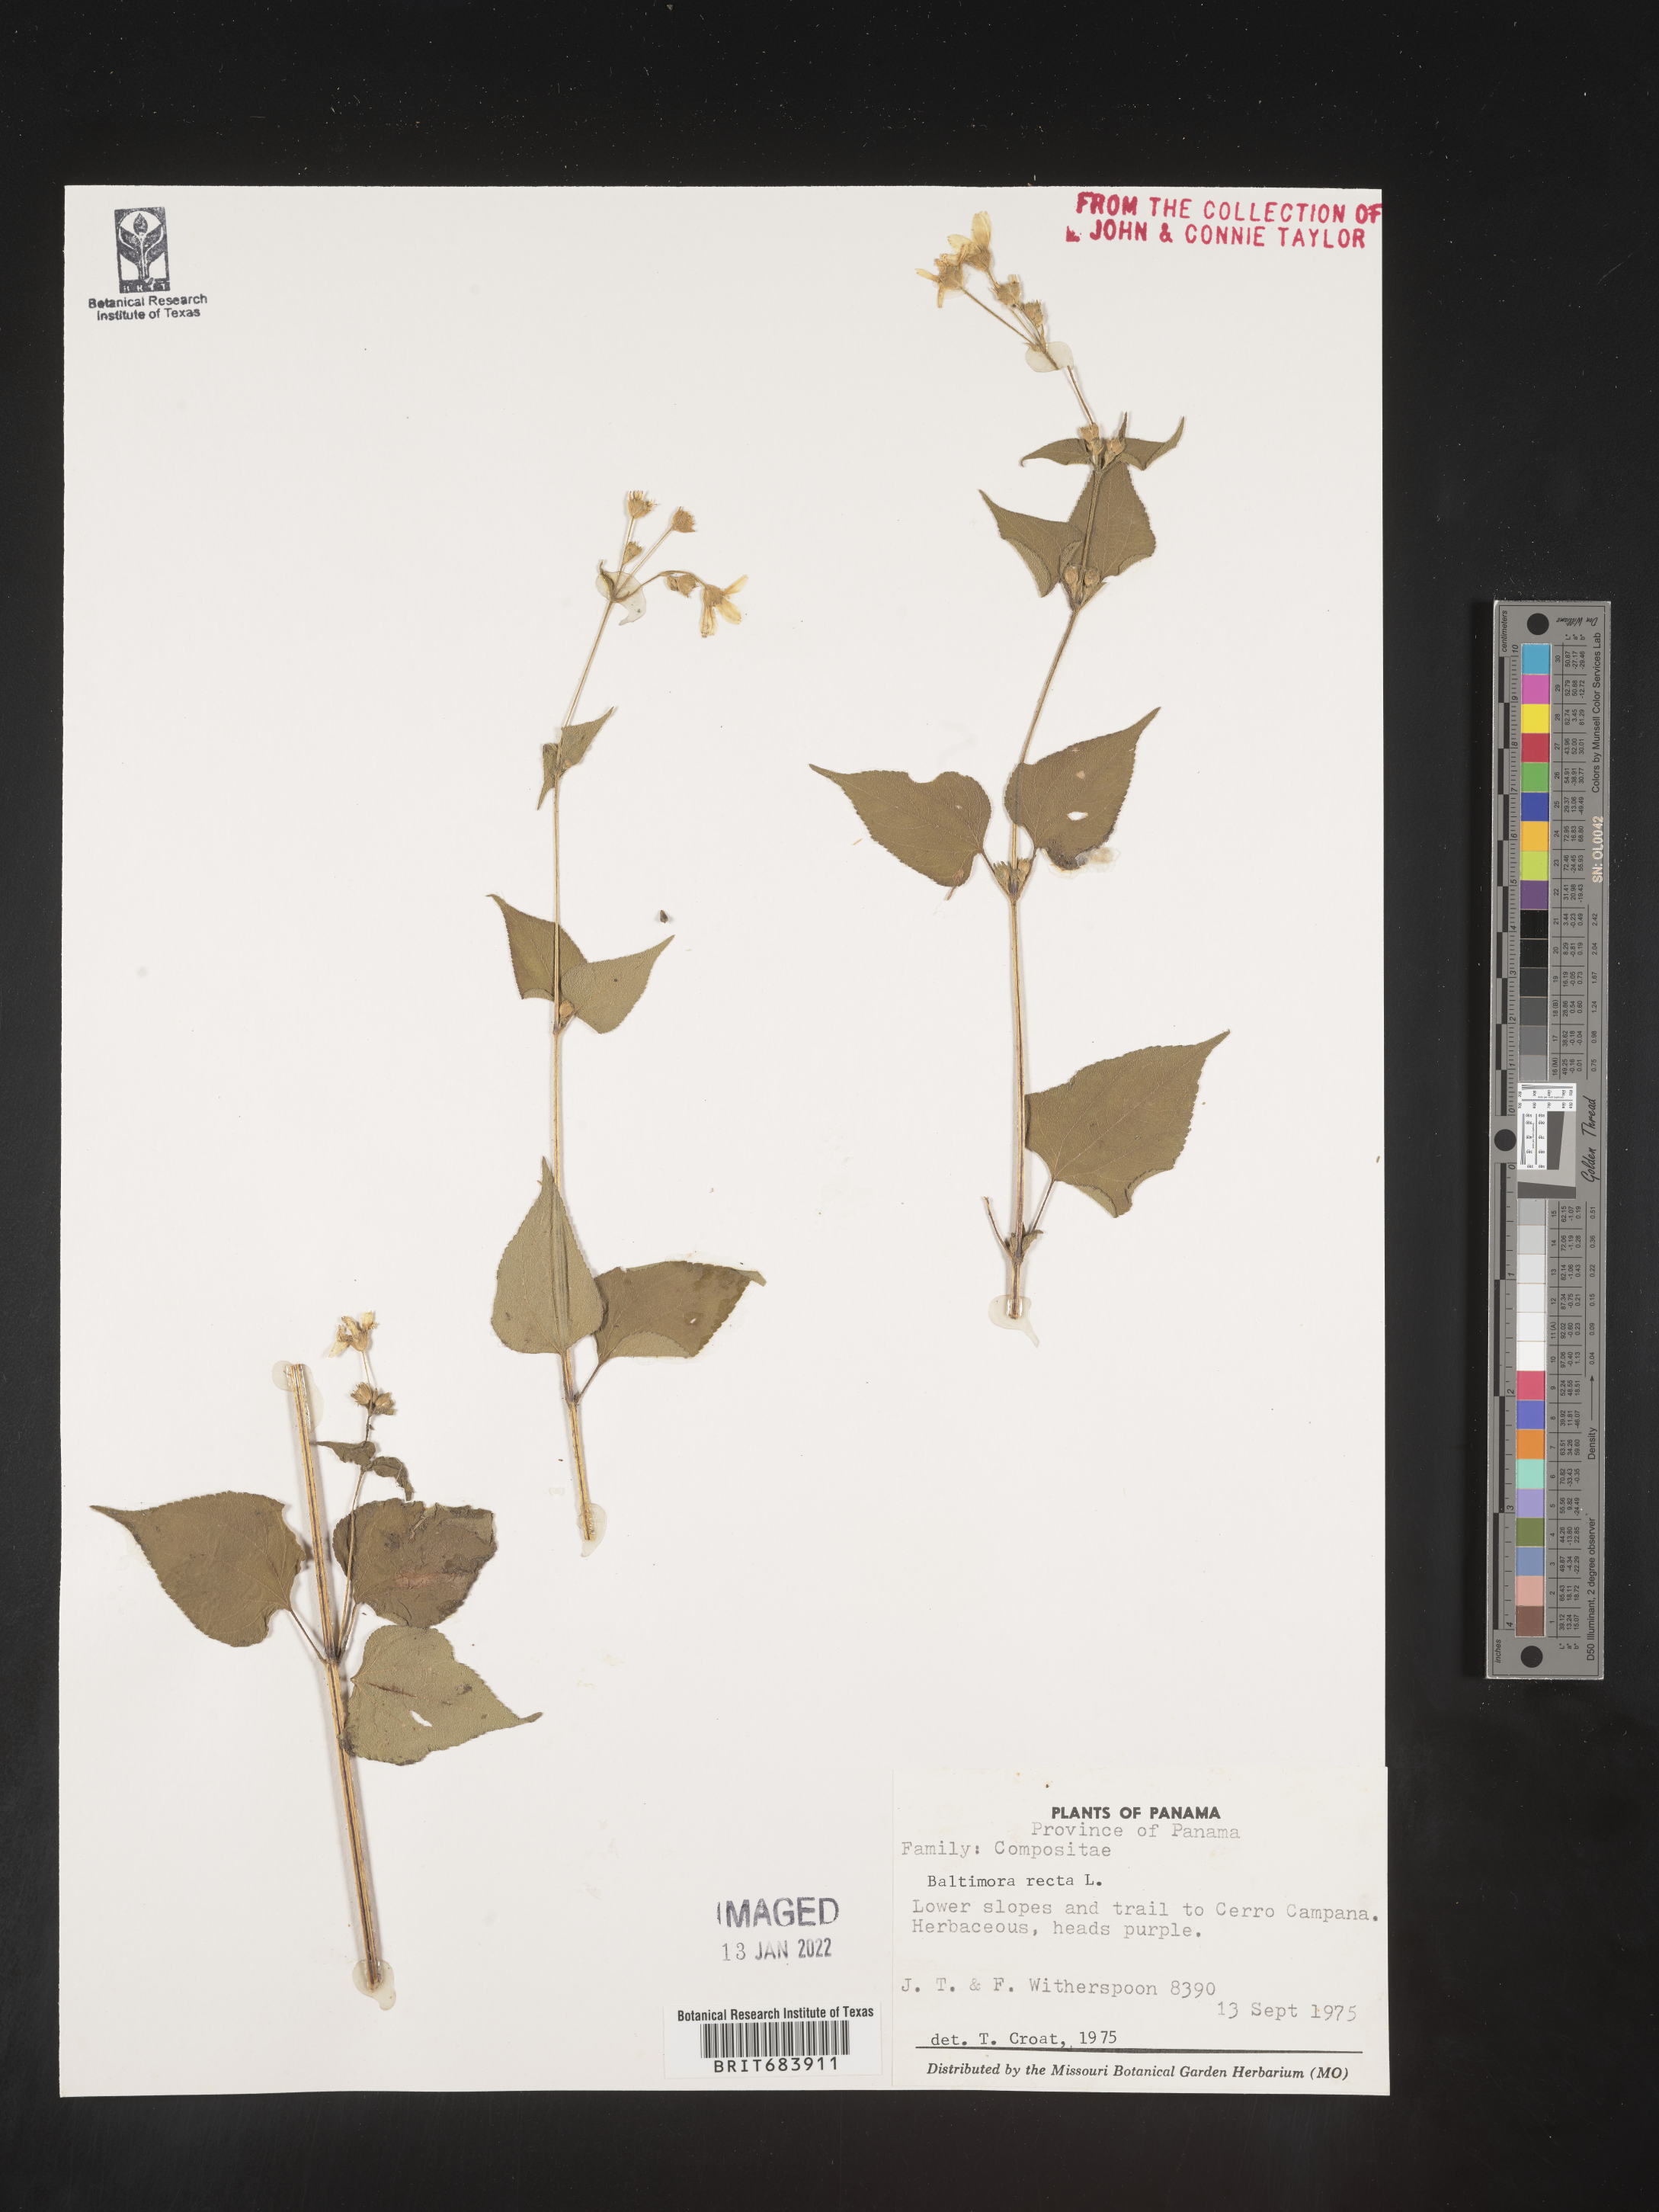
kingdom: Plantae
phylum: Tracheophyta
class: Magnoliopsida
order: Asterales
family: Asteraceae
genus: Baltimora
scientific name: Baltimora
